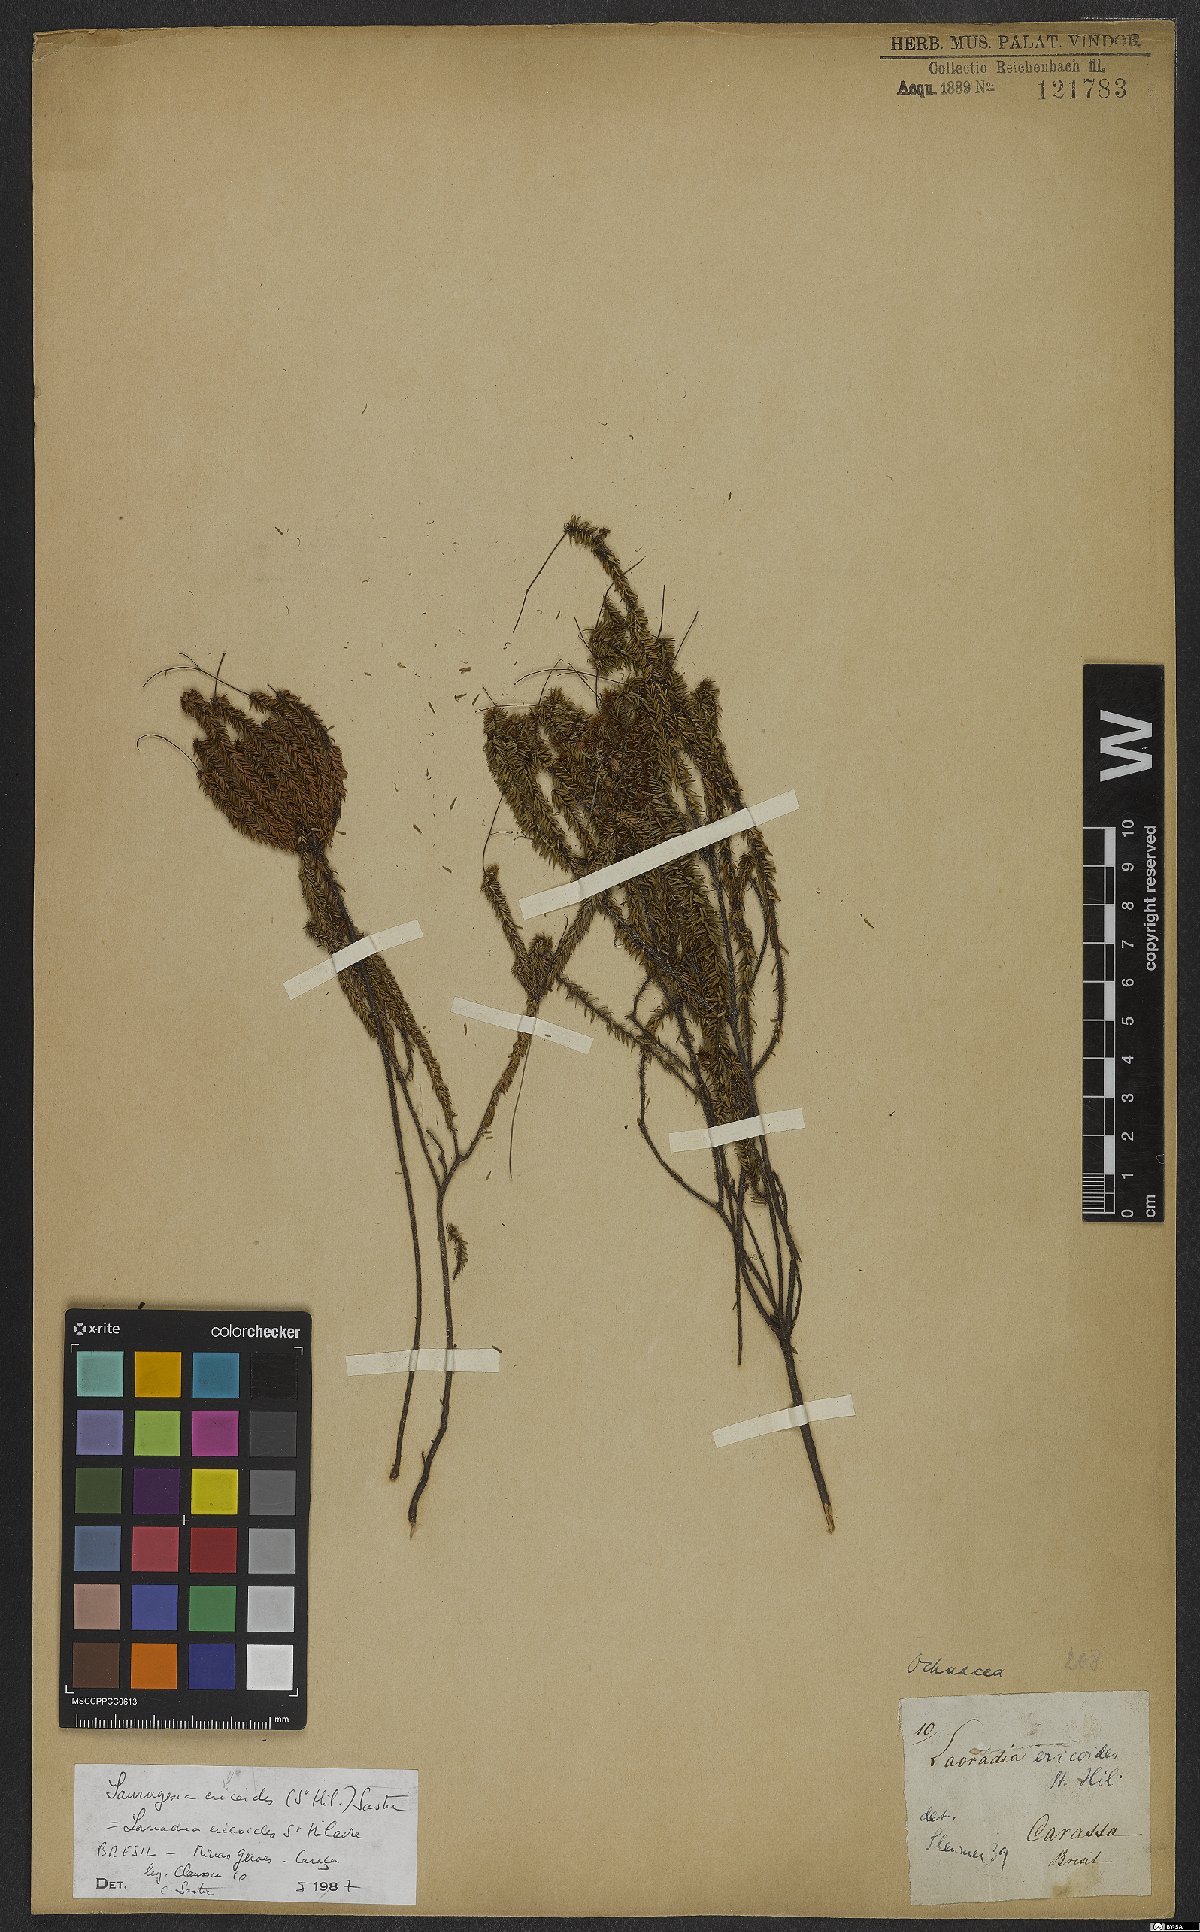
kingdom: Plantae
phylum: Tracheophyta
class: Magnoliopsida
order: Malpighiales
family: Ochnaceae
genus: Sauvagesia
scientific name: Sauvagesia ericoides
